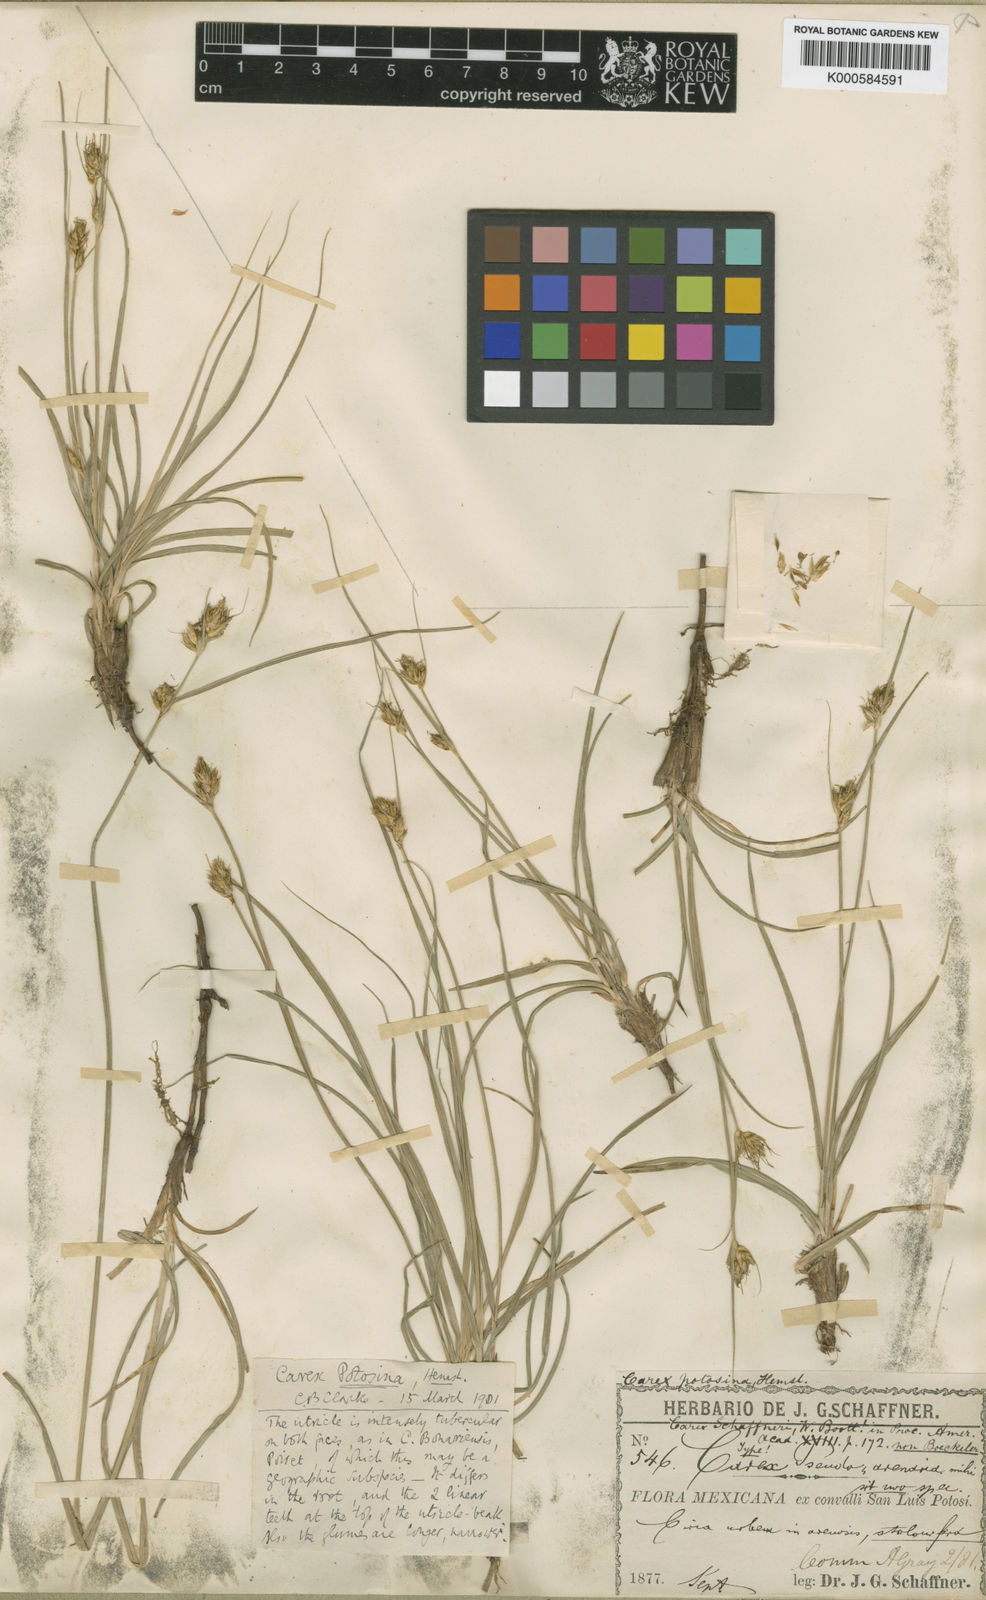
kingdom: Plantae
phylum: Tracheophyta
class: Liliopsida
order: Poales
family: Cyperaceae
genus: Carex
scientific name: Carex potosina
